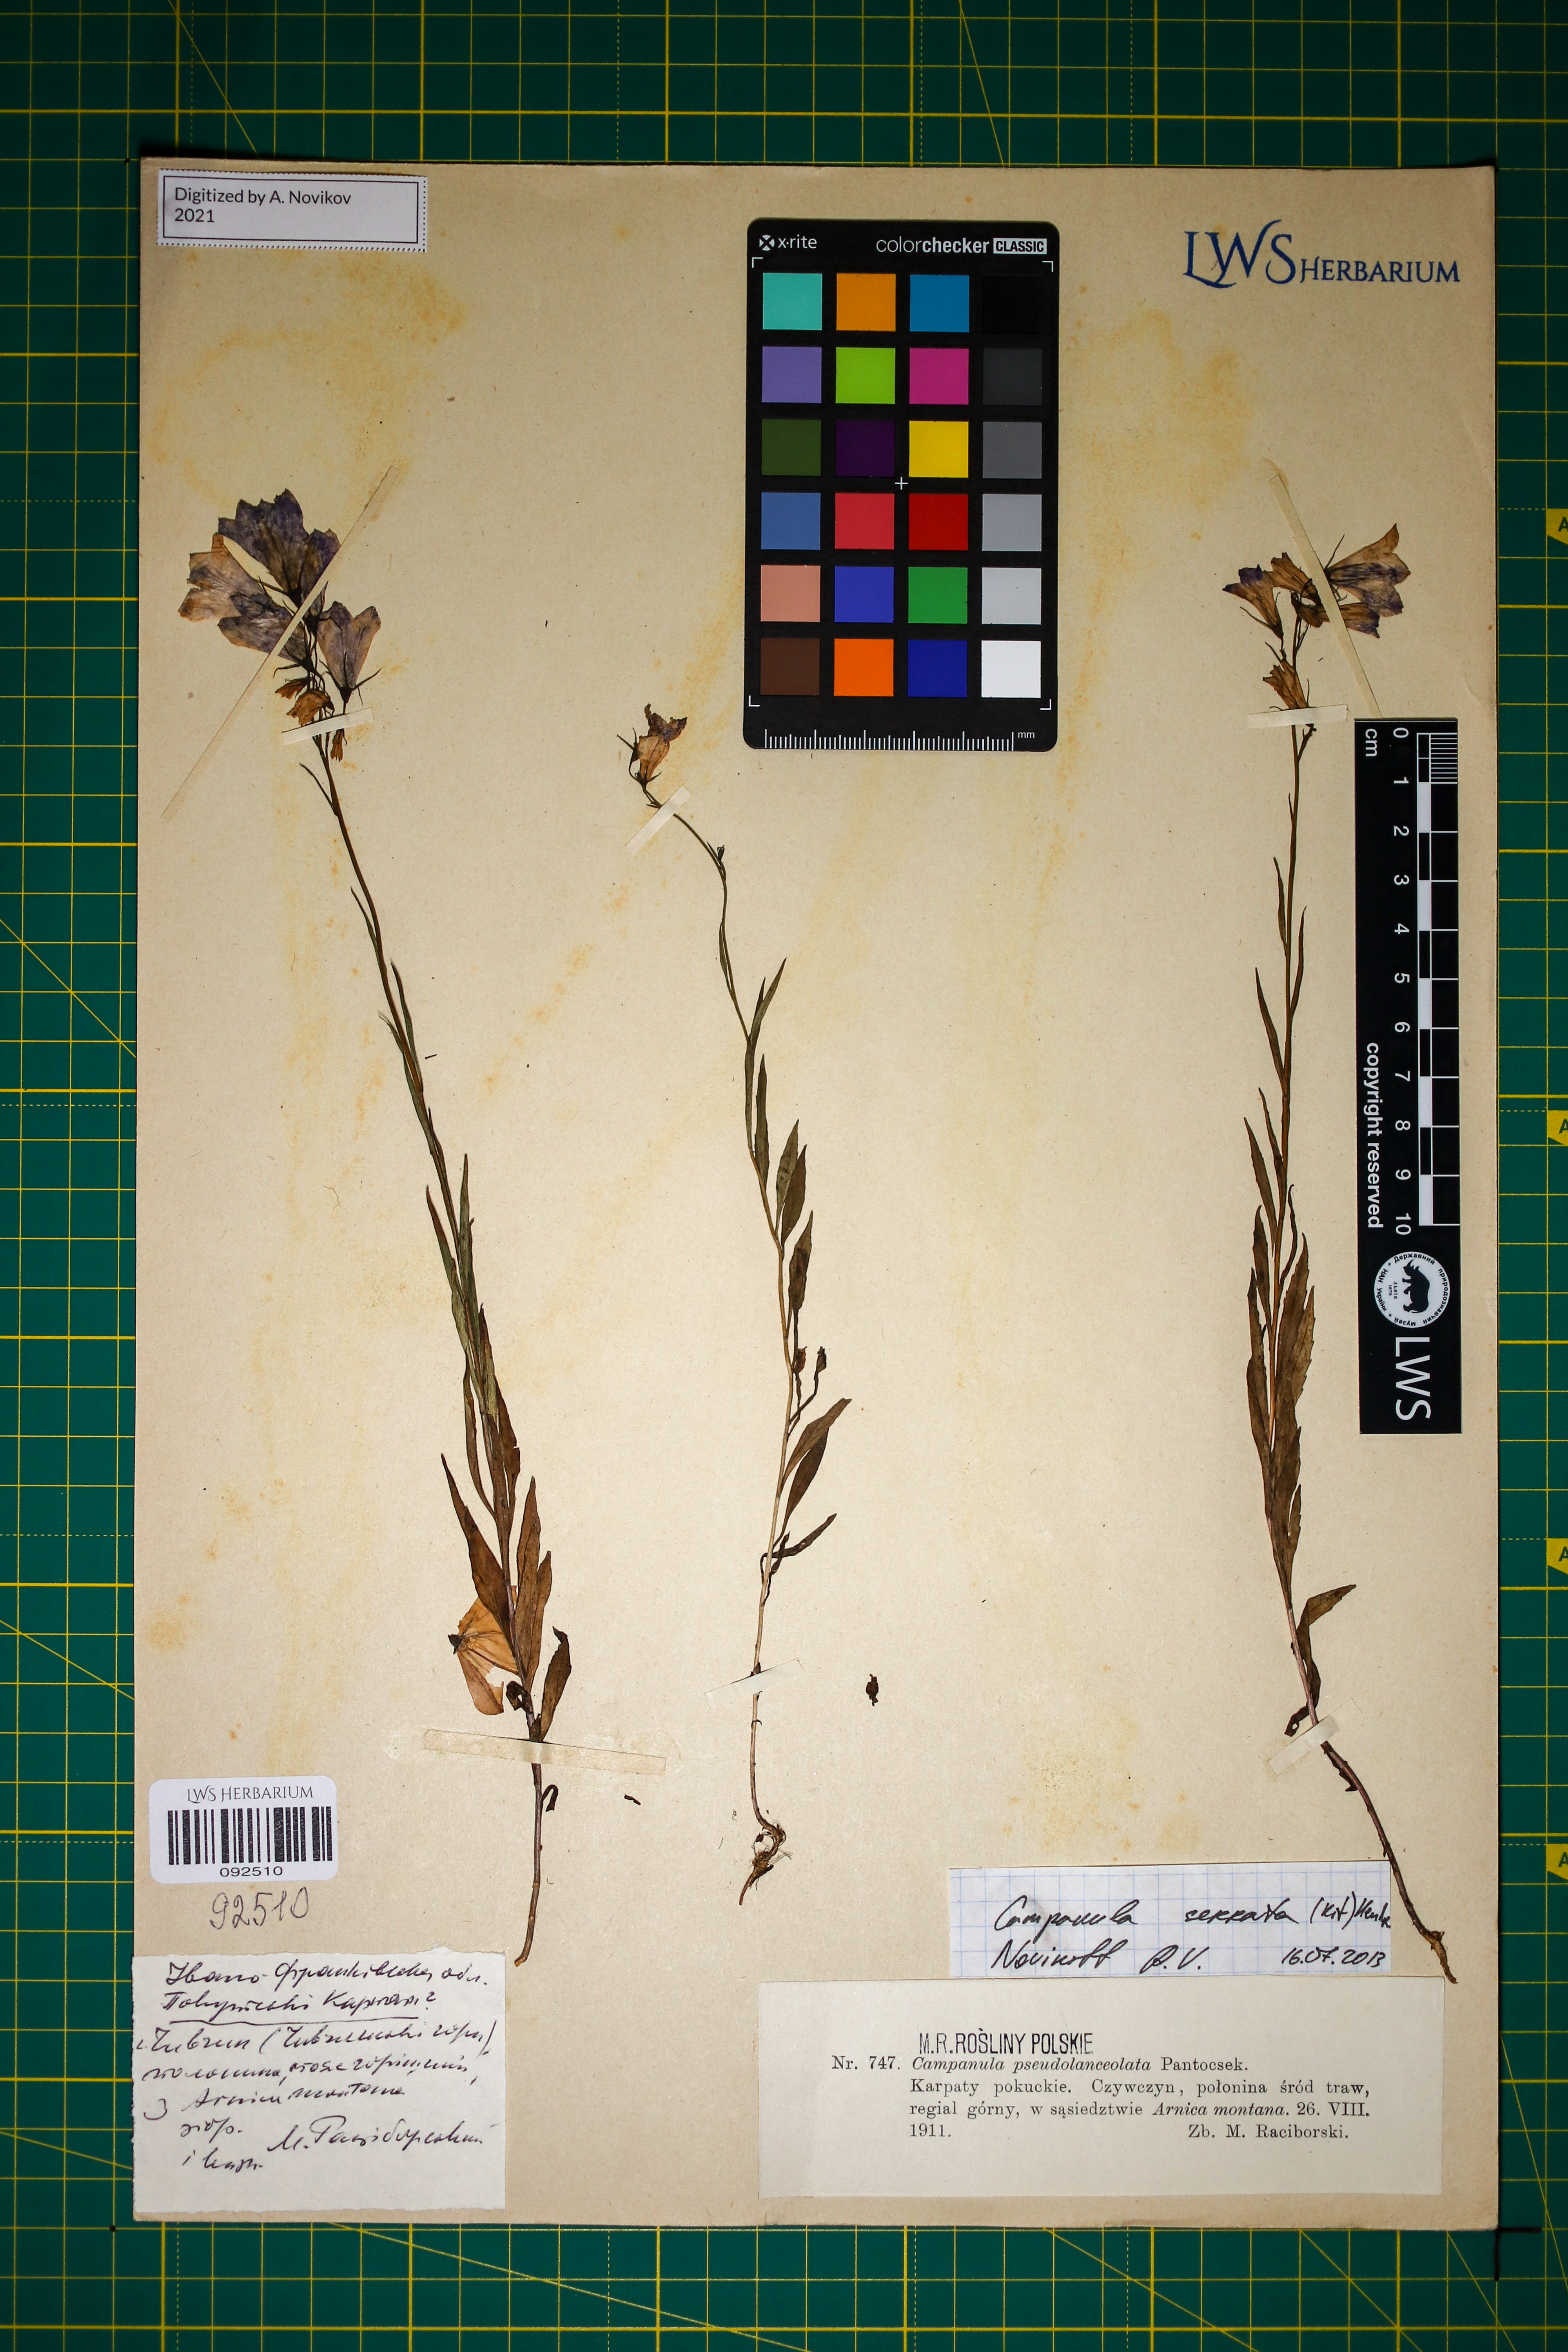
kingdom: Plantae
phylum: Tracheophyta
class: Magnoliopsida
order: Asterales
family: Campanulaceae
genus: Campanula
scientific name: Campanula serrata
